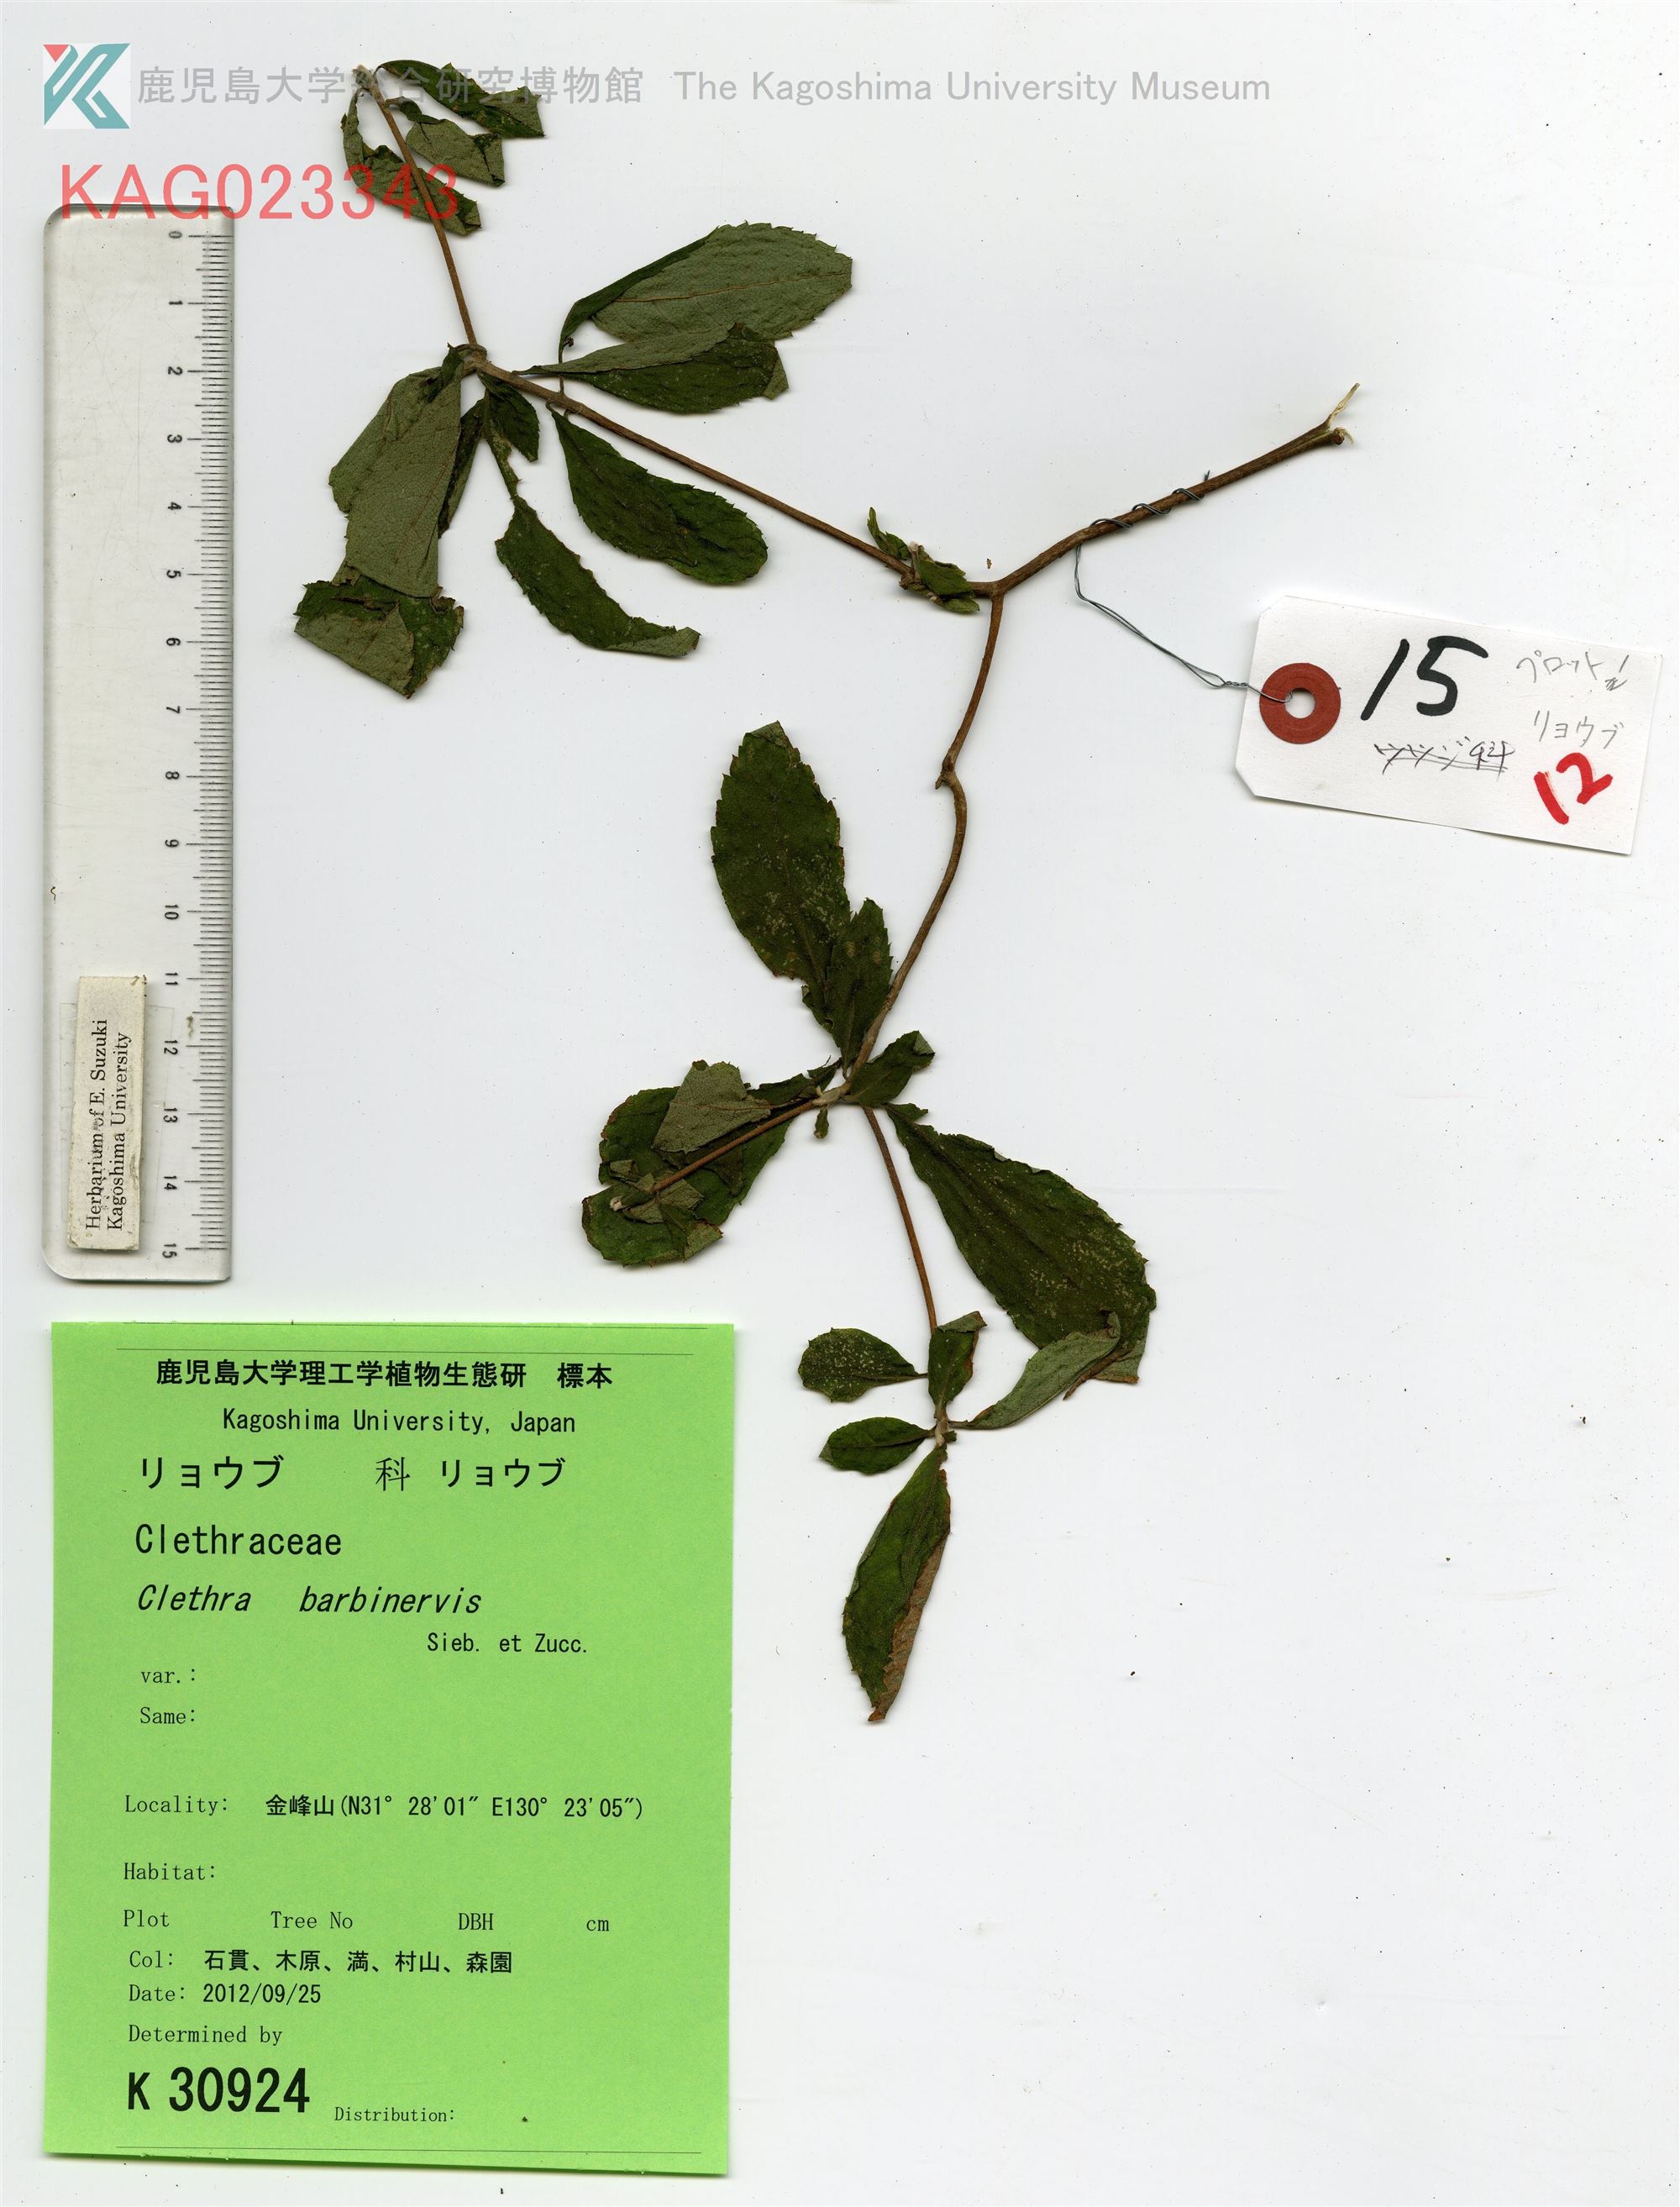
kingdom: Plantae
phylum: Tracheophyta
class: Magnoliopsida
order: Ericales
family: Clethraceae
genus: Clethra
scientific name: Clethra barbinervis
